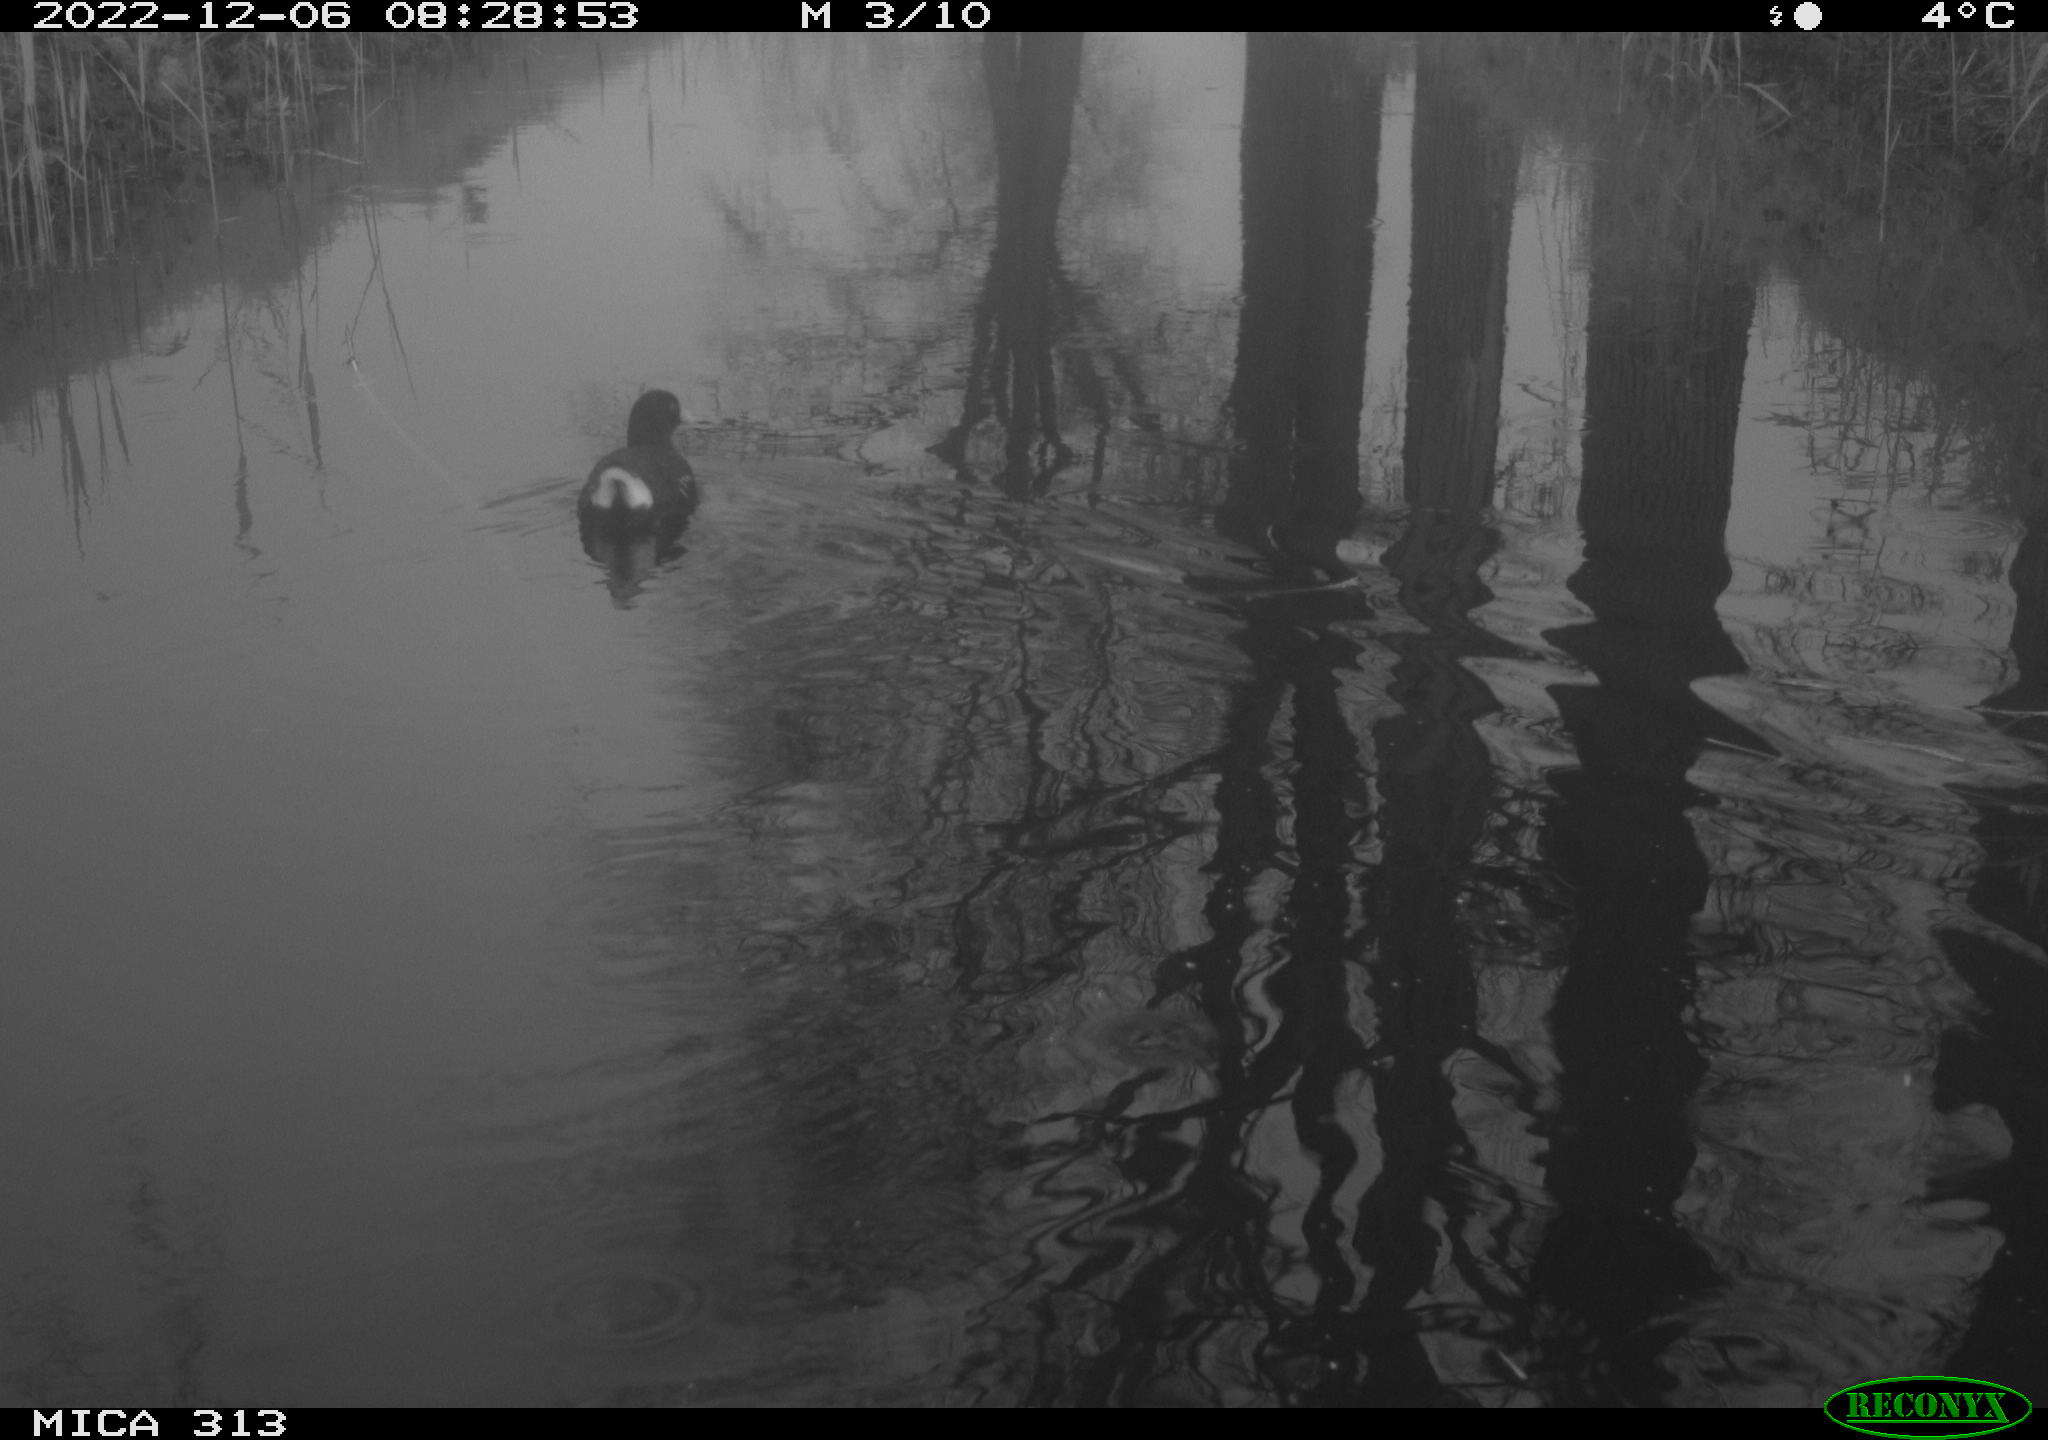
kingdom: Animalia
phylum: Chordata
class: Aves
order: Gruiformes
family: Rallidae
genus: Gallinula
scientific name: Gallinula chloropus
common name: Common moorhen
